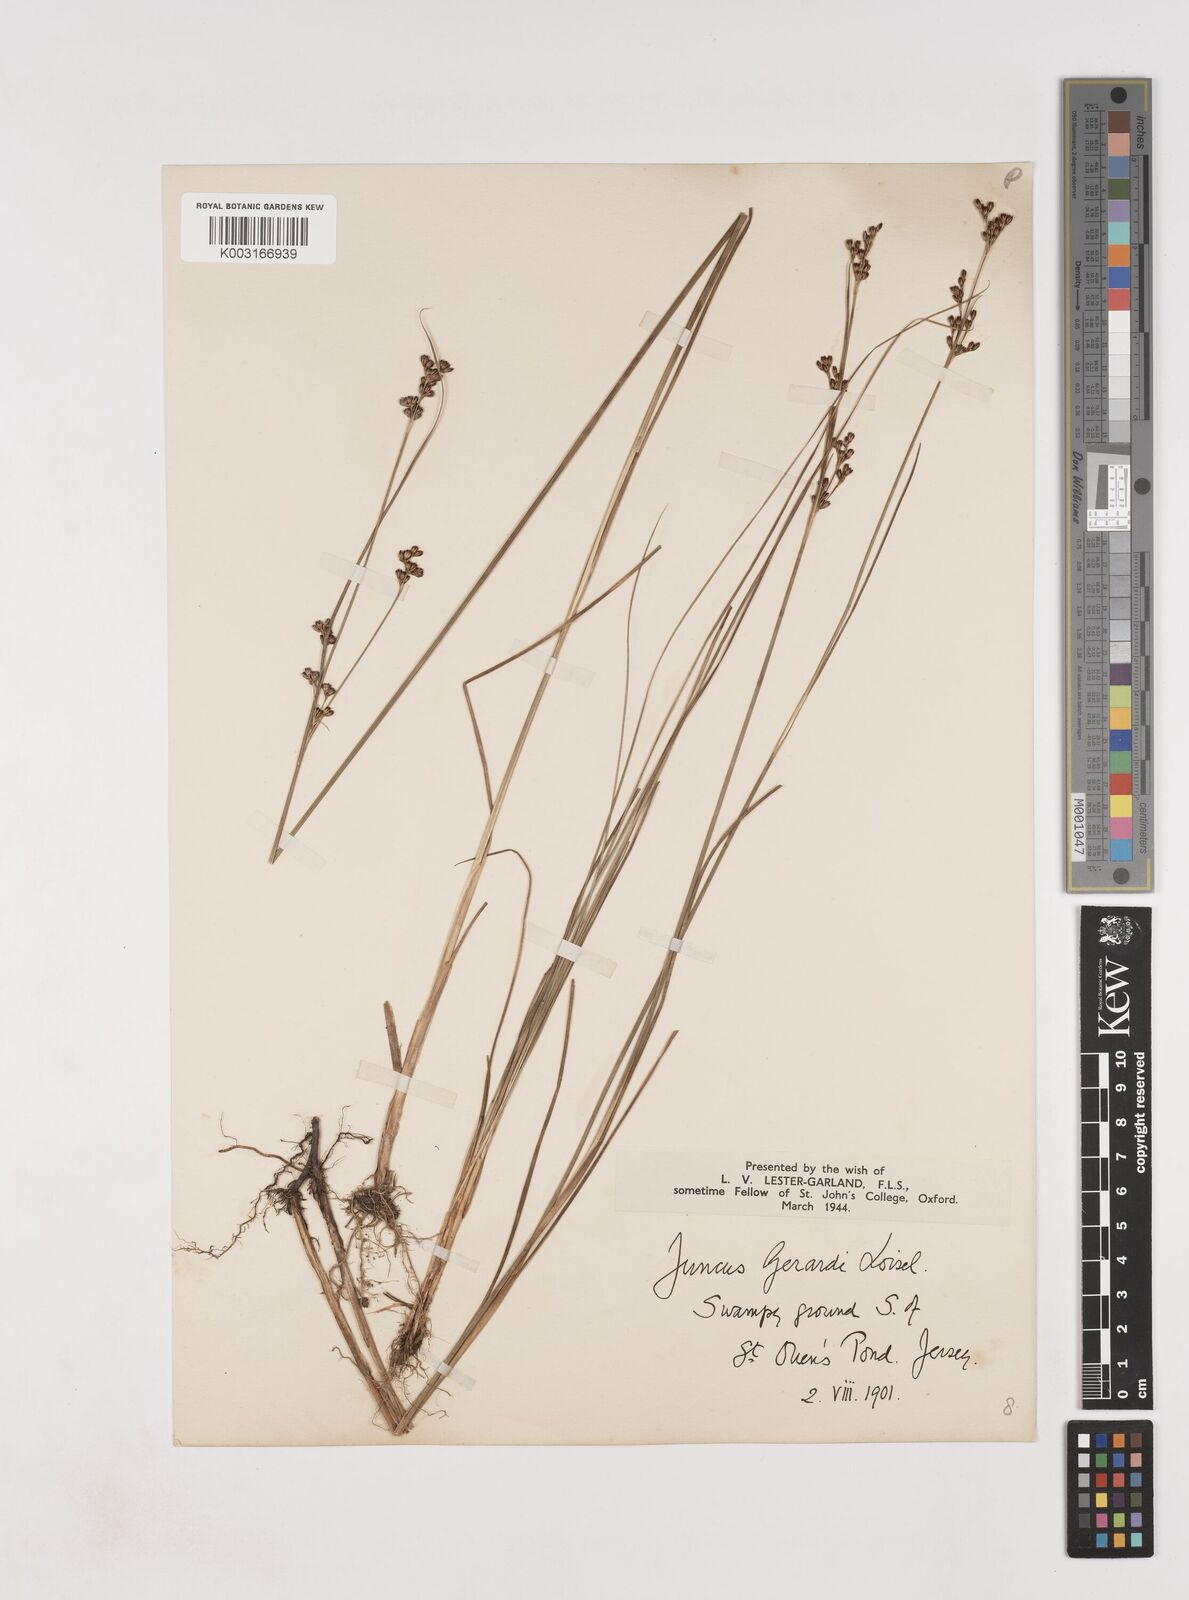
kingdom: Plantae
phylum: Tracheophyta
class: Liliopsida
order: Poales
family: Juncaceae
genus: Juncus
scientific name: Juncus gerardi
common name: Saltmarsh rush
